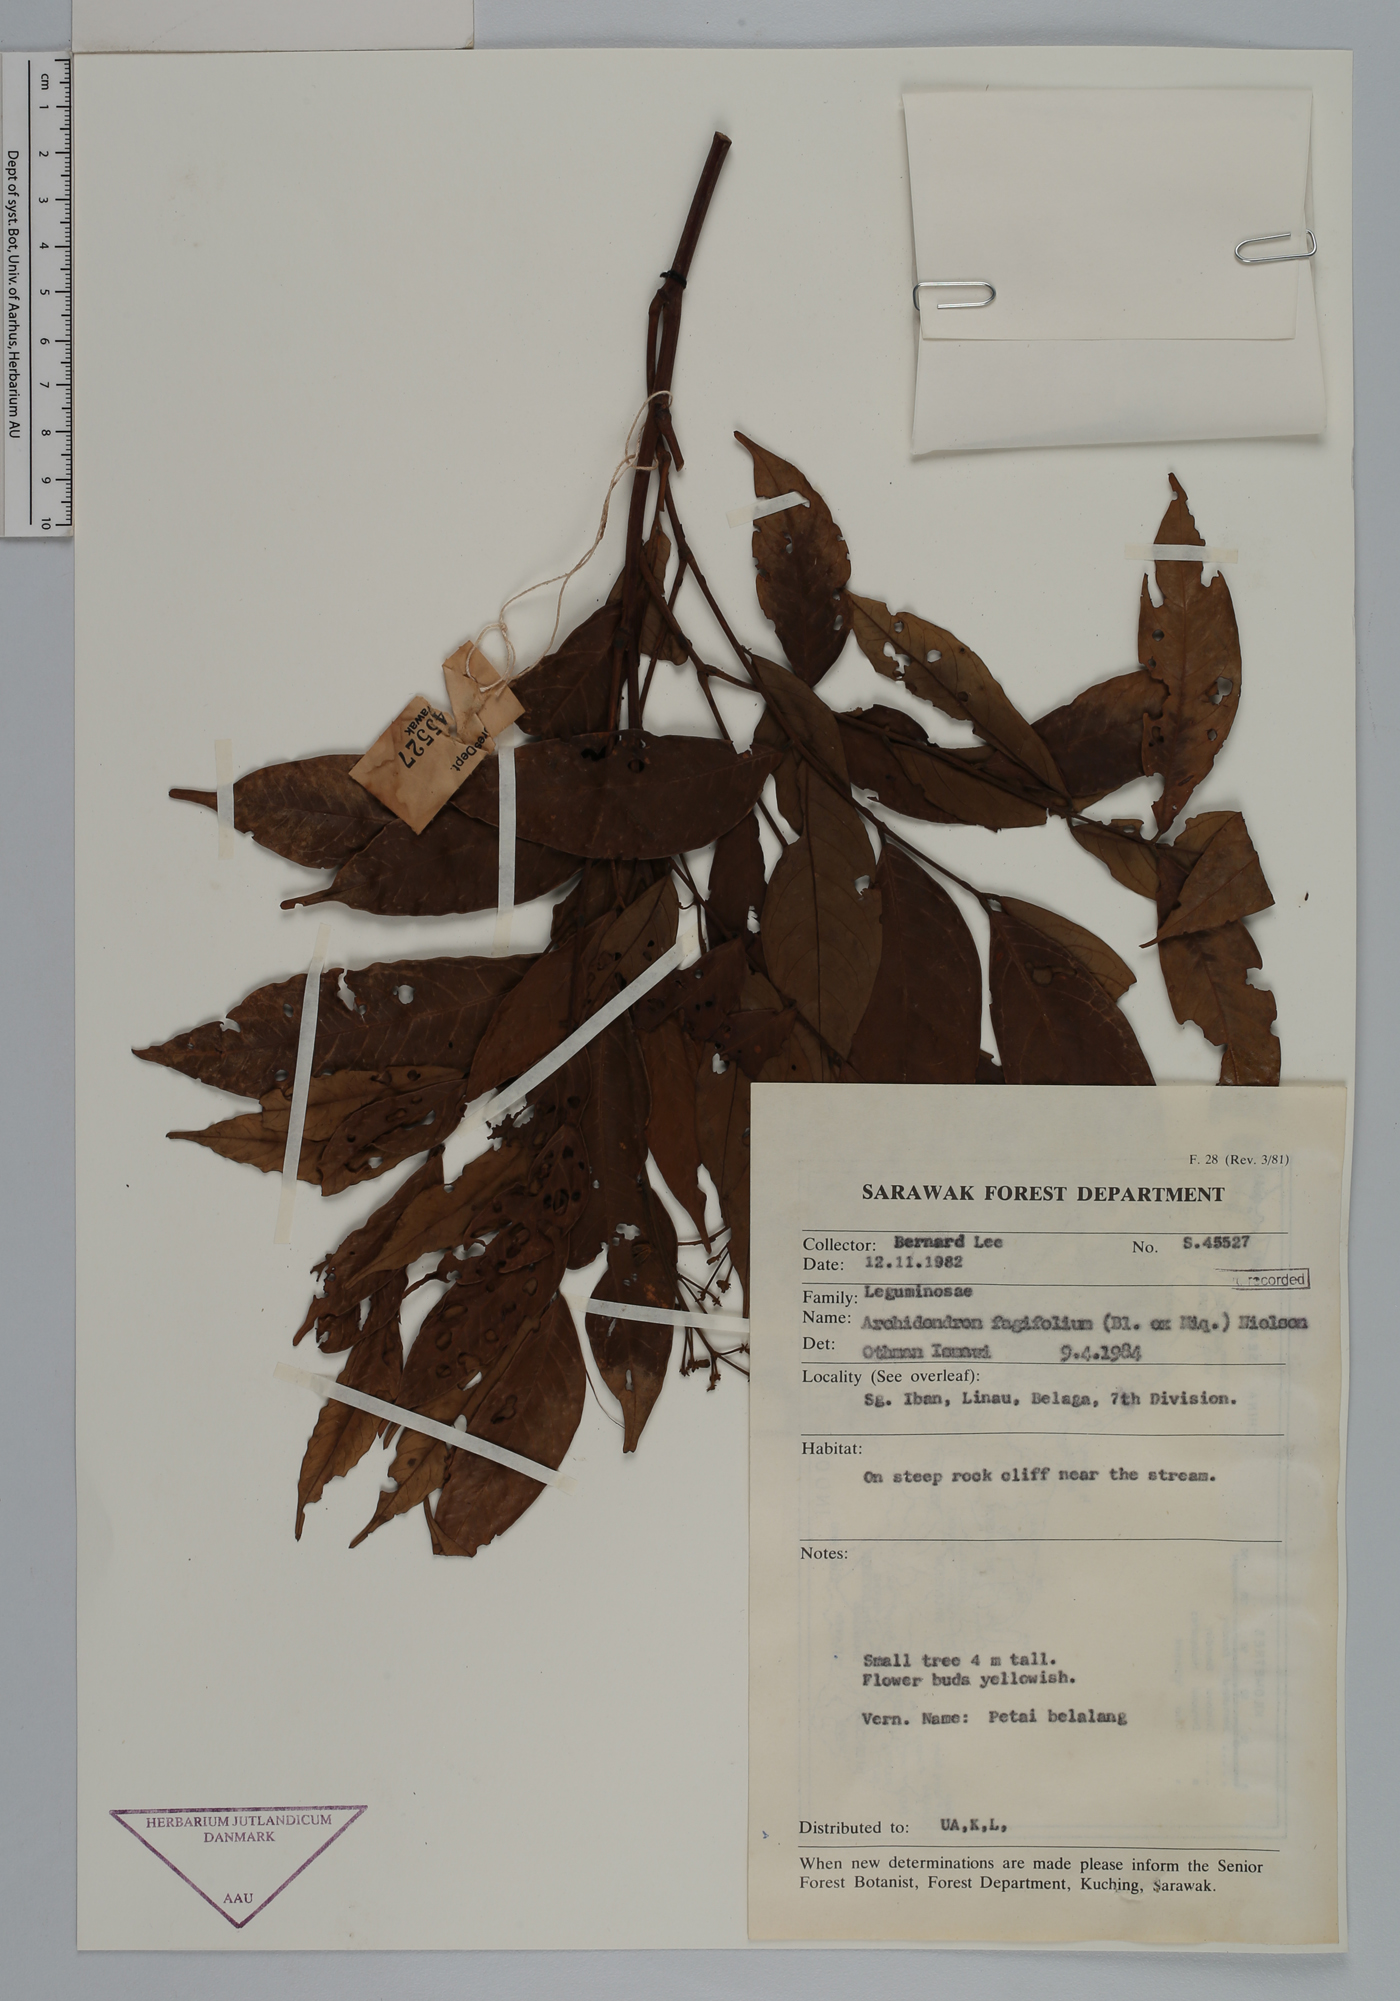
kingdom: Plantae
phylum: Tracheophyta
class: Magnoliopsida
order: Fabales
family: Fabaceae
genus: Archidendron
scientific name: Archidendron fagifolium
